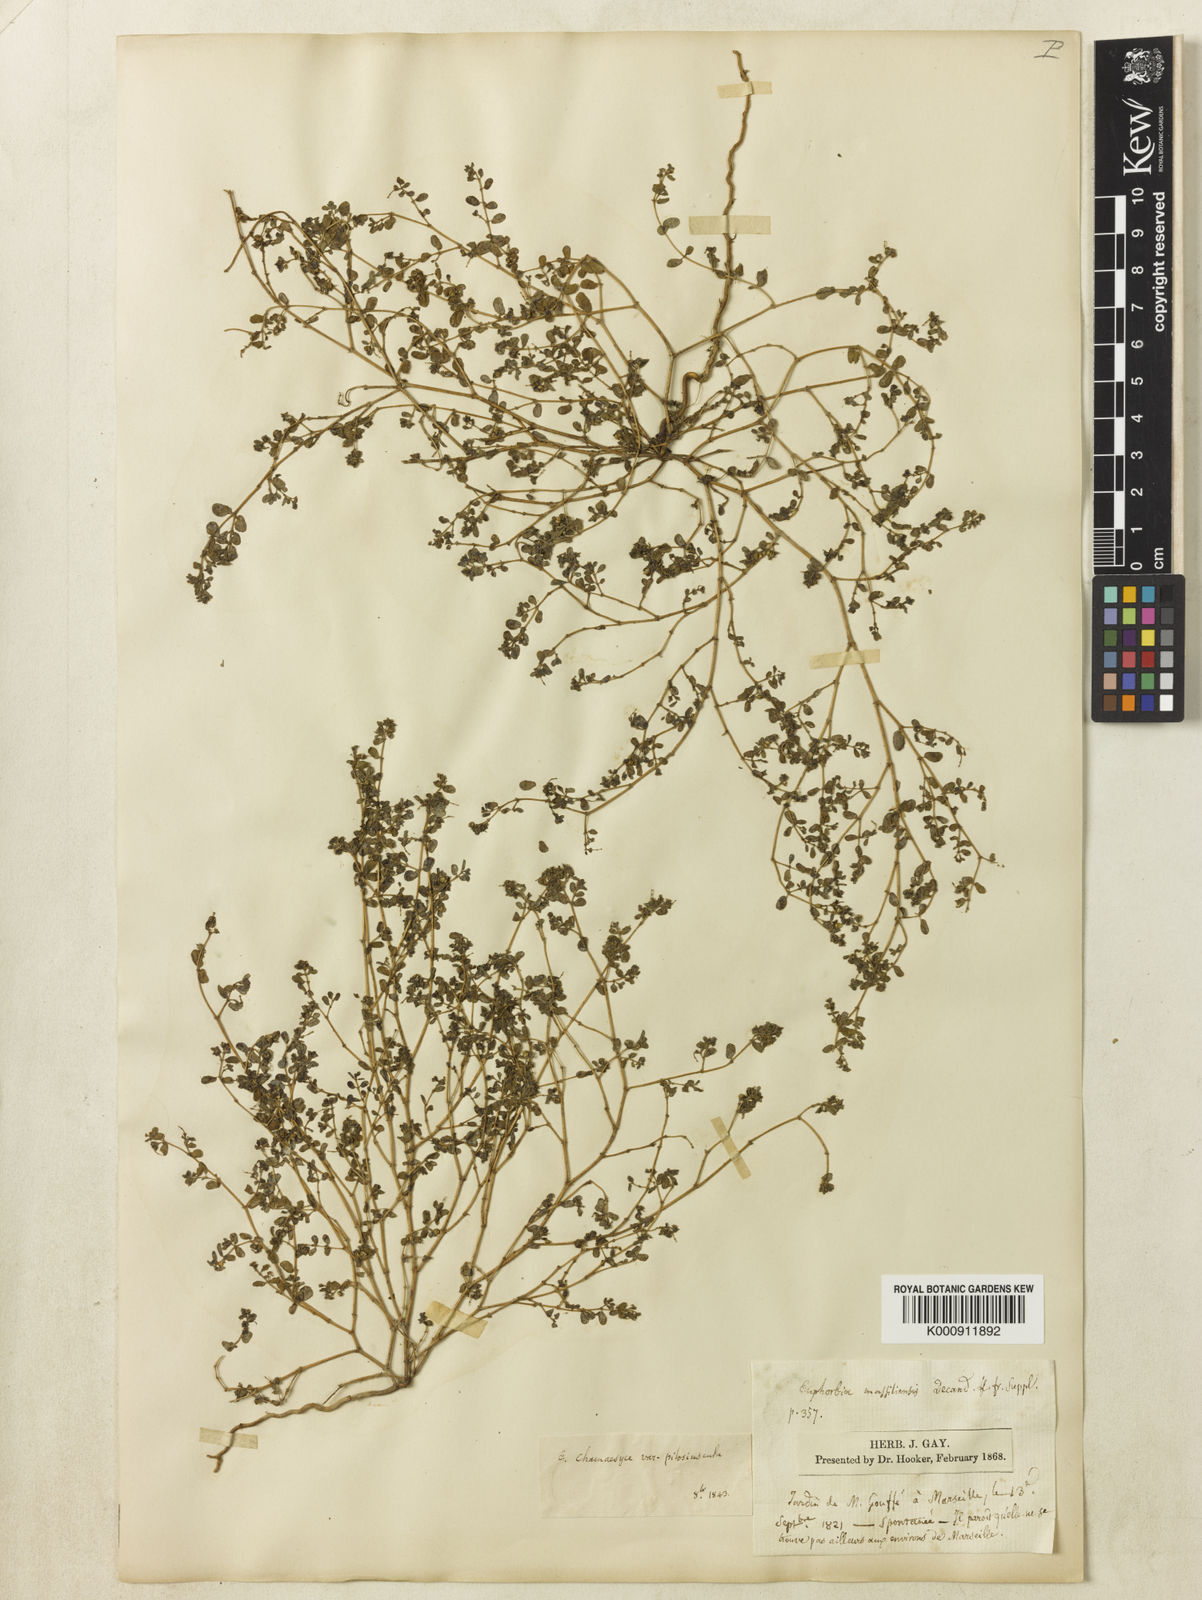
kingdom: Plantae
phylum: Tracheophyta
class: Magnoliopsida
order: Malpighiales
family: Euphorbiaceae
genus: Euphorbia
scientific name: Euphorbia
